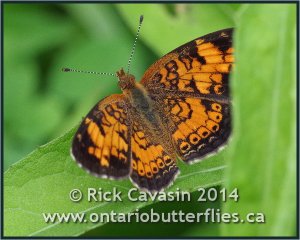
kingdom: Animalia
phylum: Arthropoda
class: Insecta
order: Lepidoptera
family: Nymphalidae
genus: Phyciodes
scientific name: Phyciodes tharos
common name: Pearl Crescent
